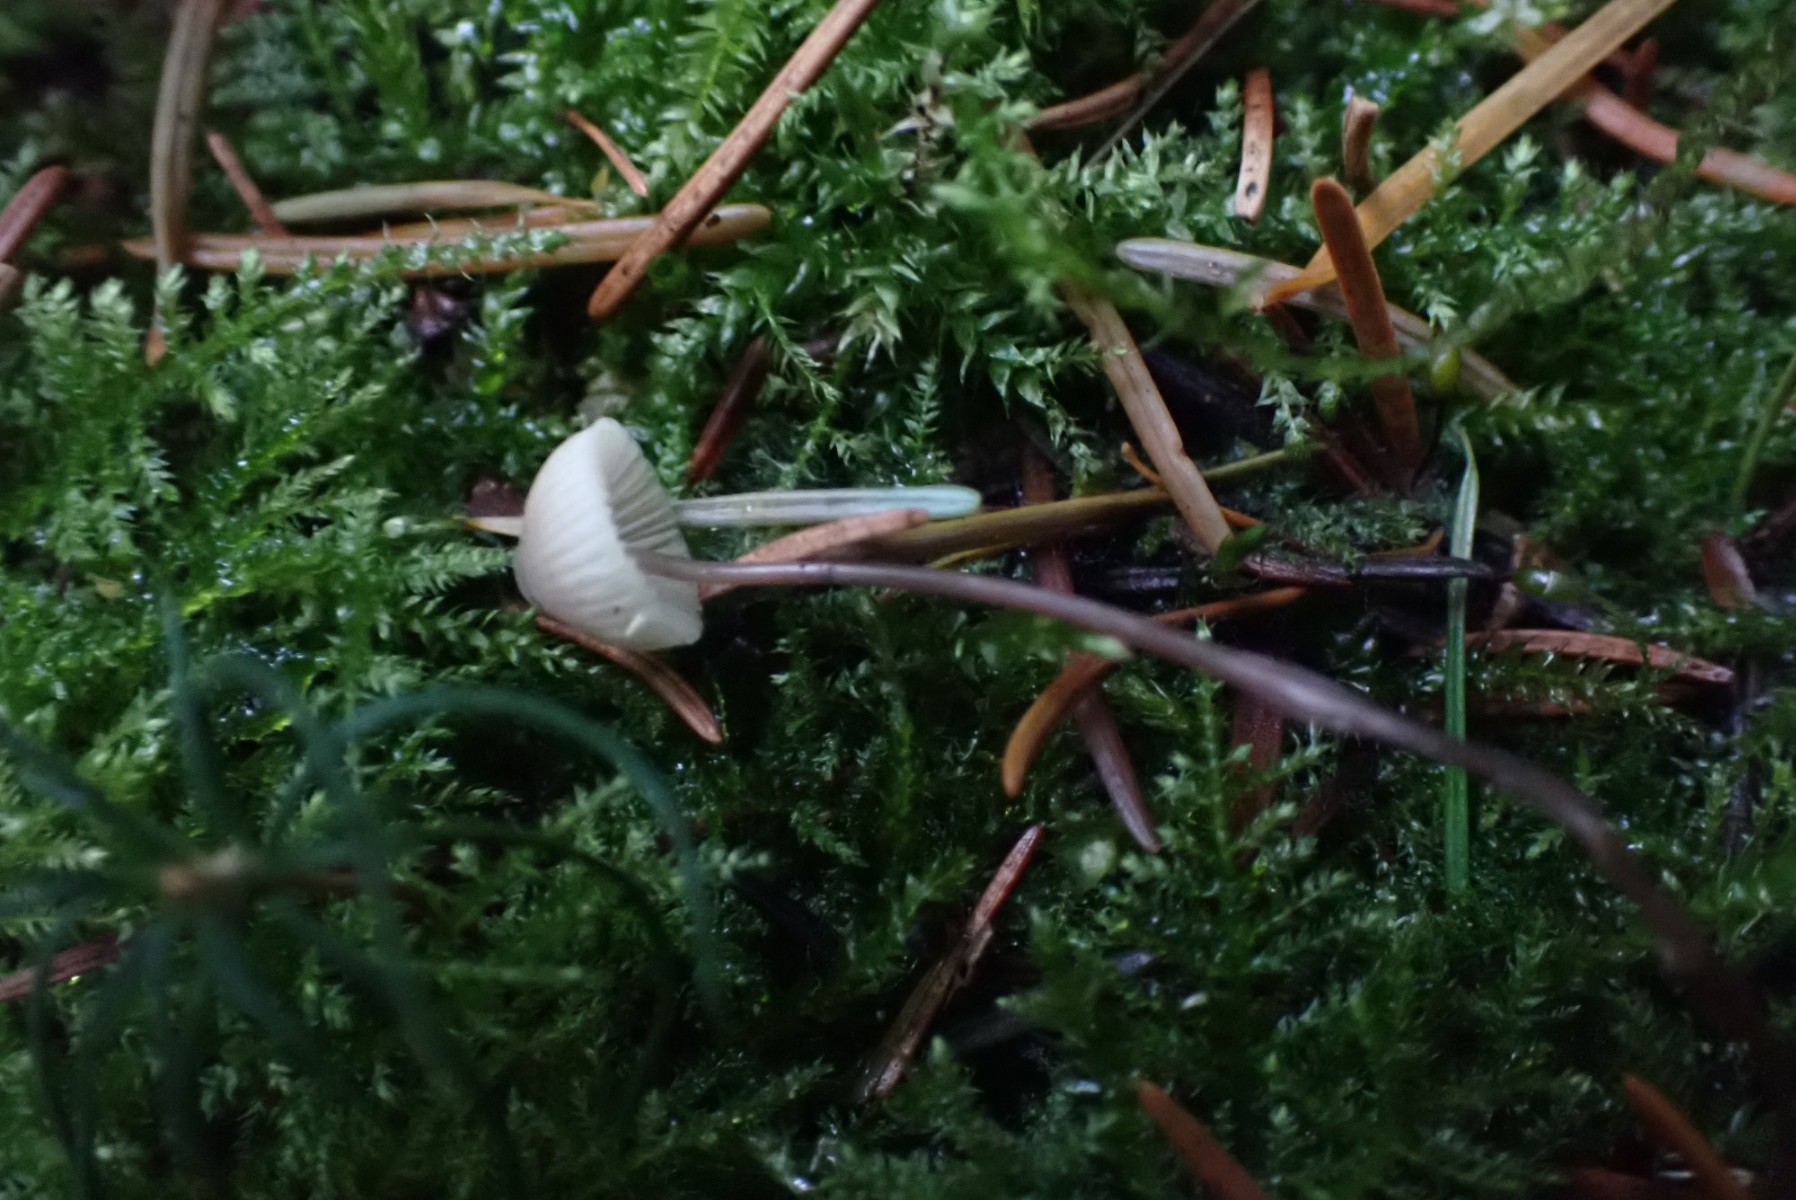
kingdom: Fungi
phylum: Basidiomycota
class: Agaricomycetes
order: Agaricales
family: Mycenaceae
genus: Mycena
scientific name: Mycena flavescens
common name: grågul huesvamp
